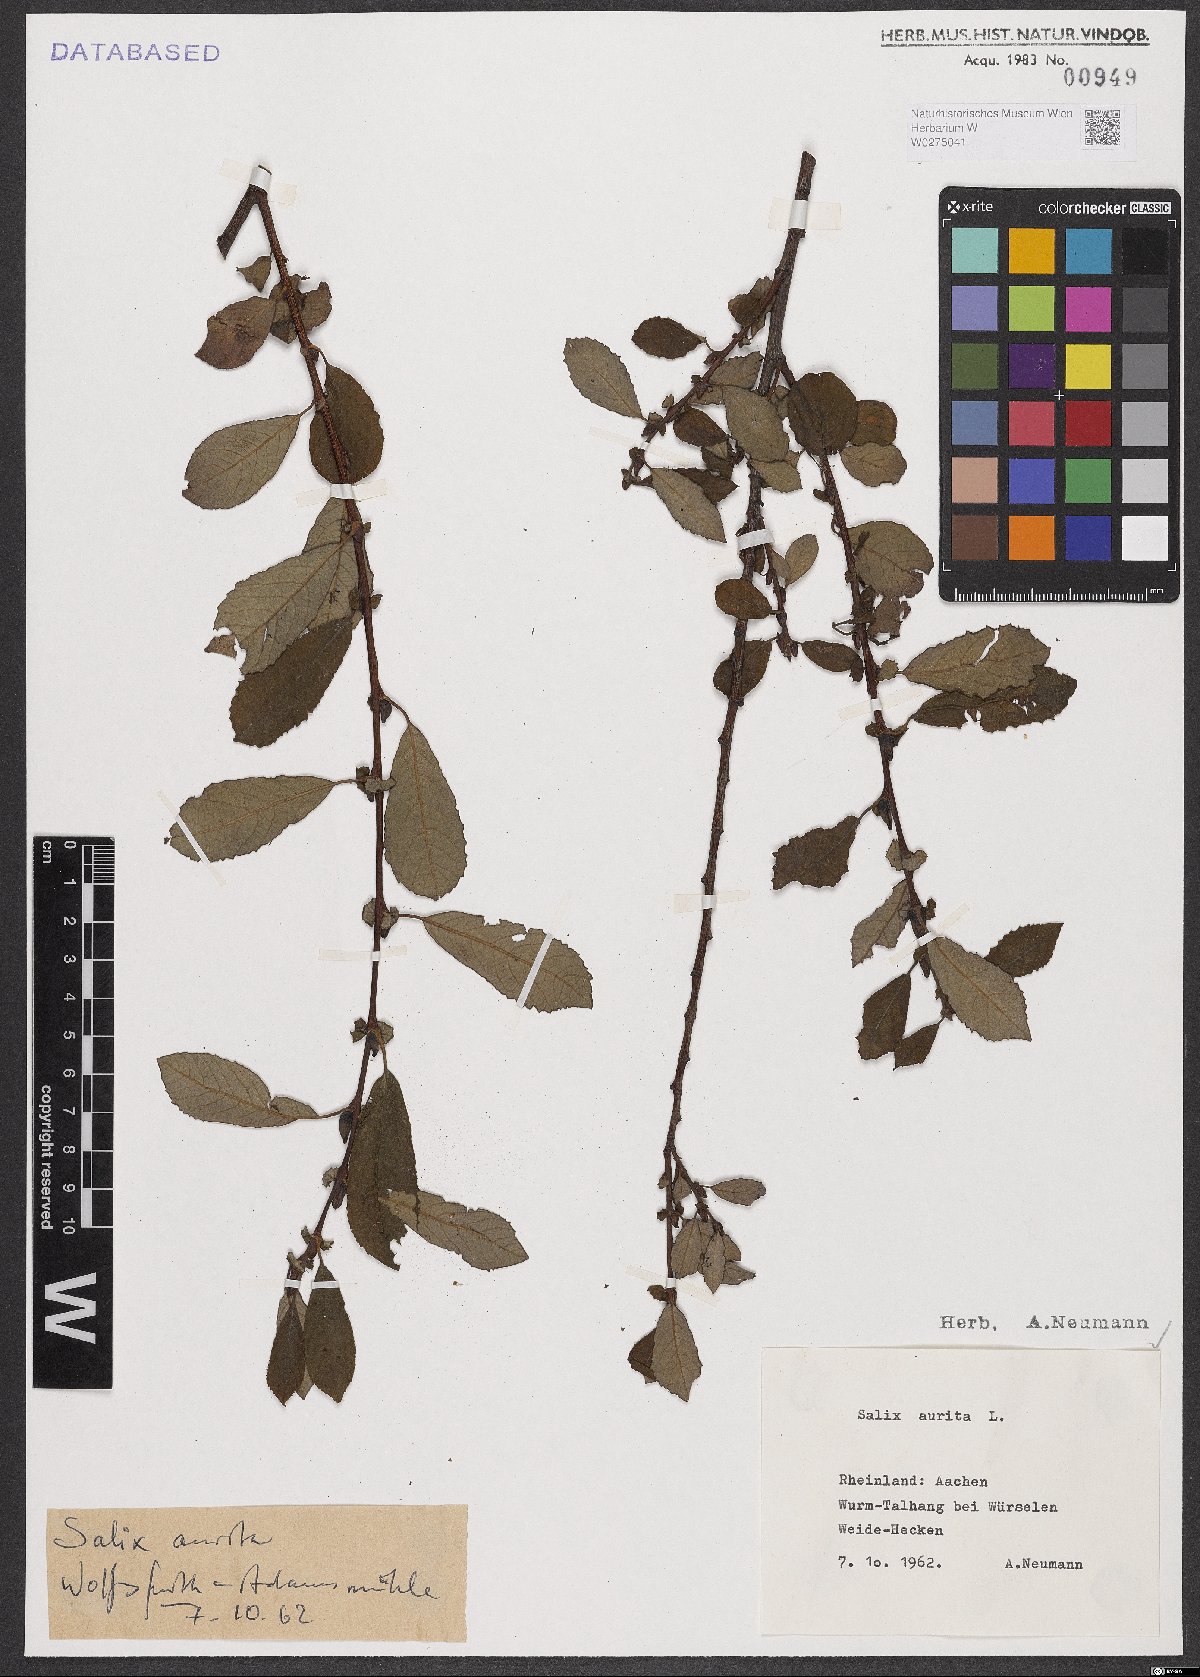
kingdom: Plantae
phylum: Tracheophyta
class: Magnoliopsida
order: Malpighiales
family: Salicaceae
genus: Salix
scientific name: Salix aurita
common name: Eared willow
